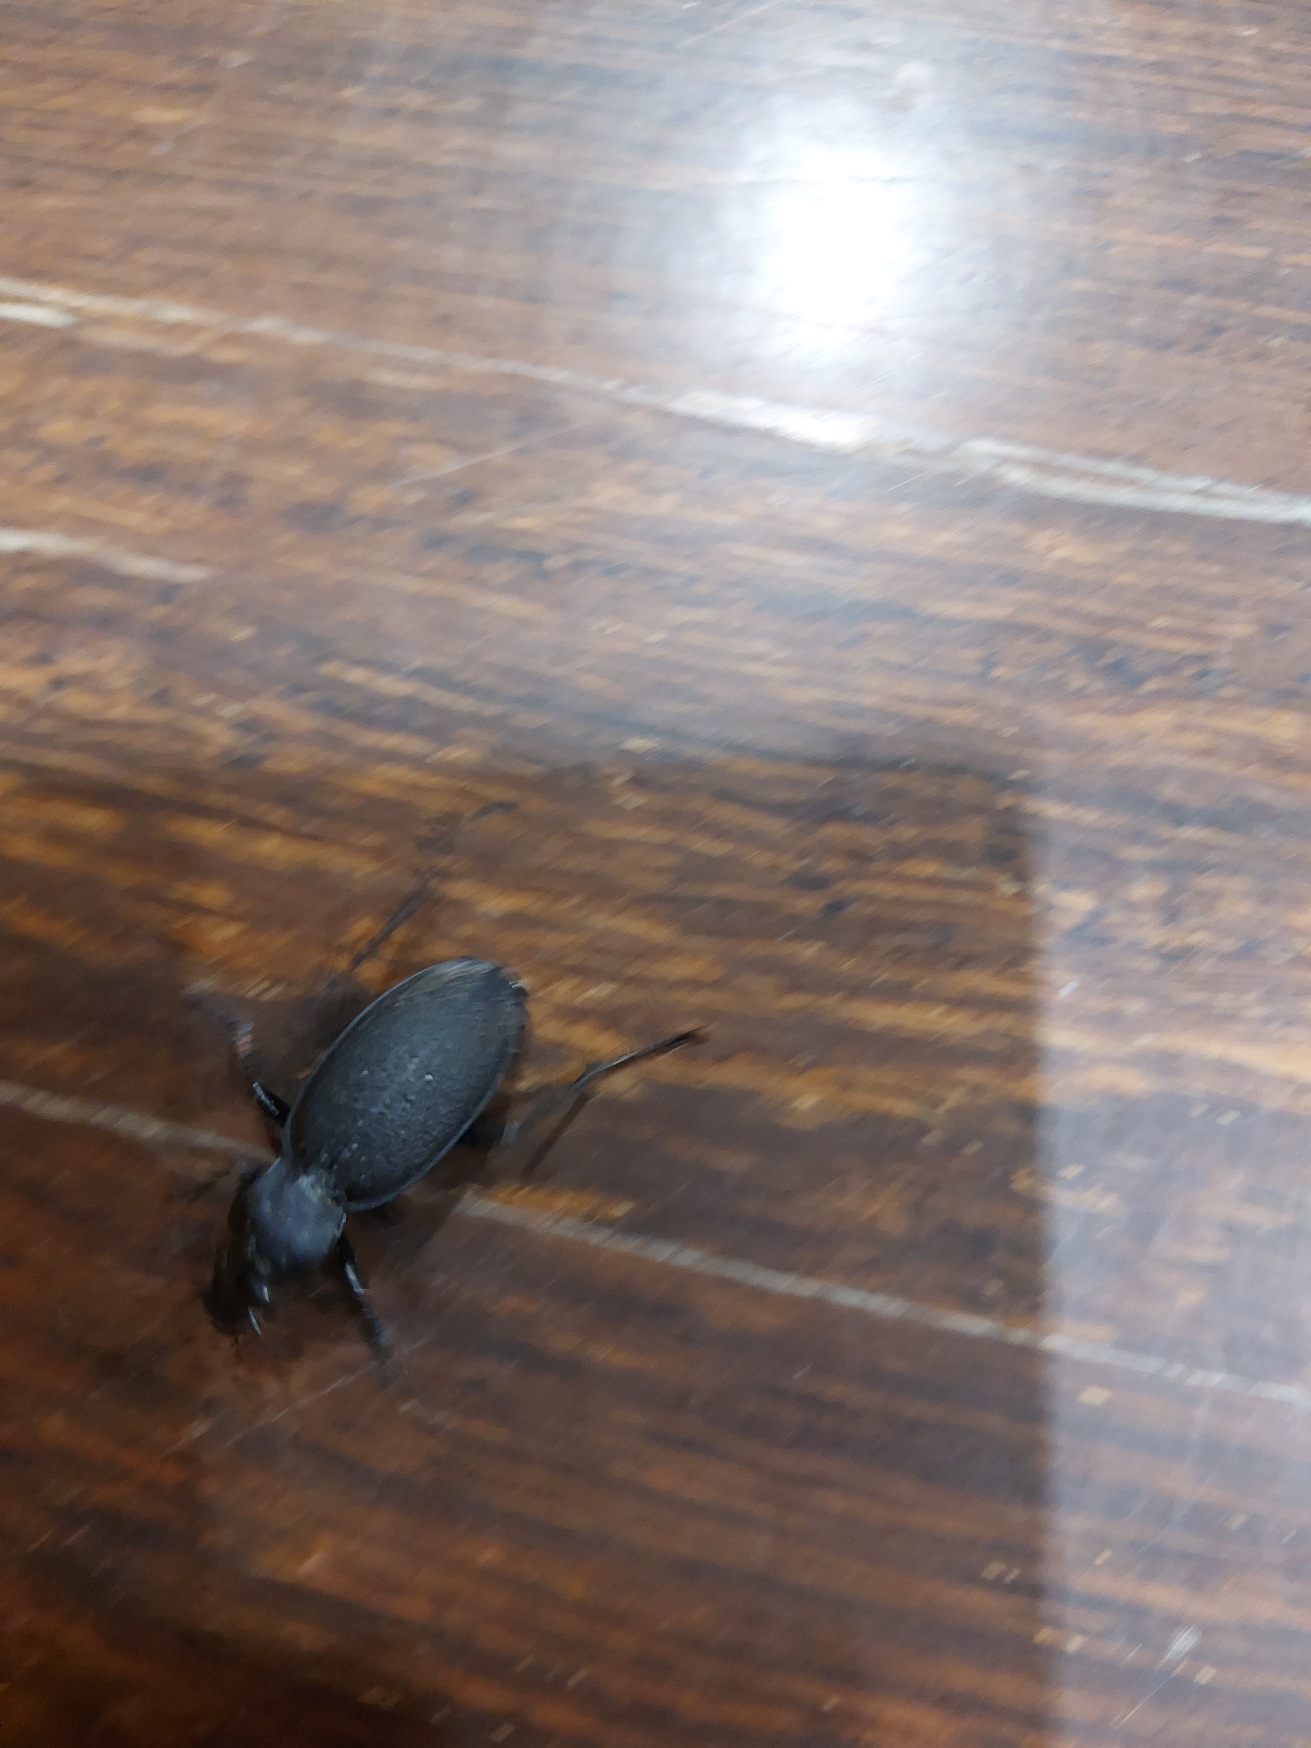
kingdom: Animalia
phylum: Arthropoda
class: Insecta
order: Coleoptera
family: Carabidae
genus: Carabus
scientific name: Carabus coriaceus
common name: Læderløber
